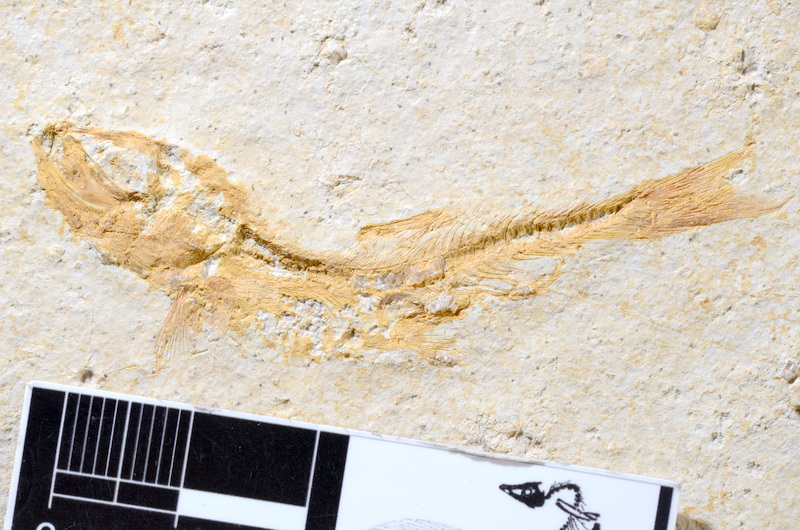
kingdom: Animalia
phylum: Chordata
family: Ascalaboidae
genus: Tharsis
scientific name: Tharsis dubius
